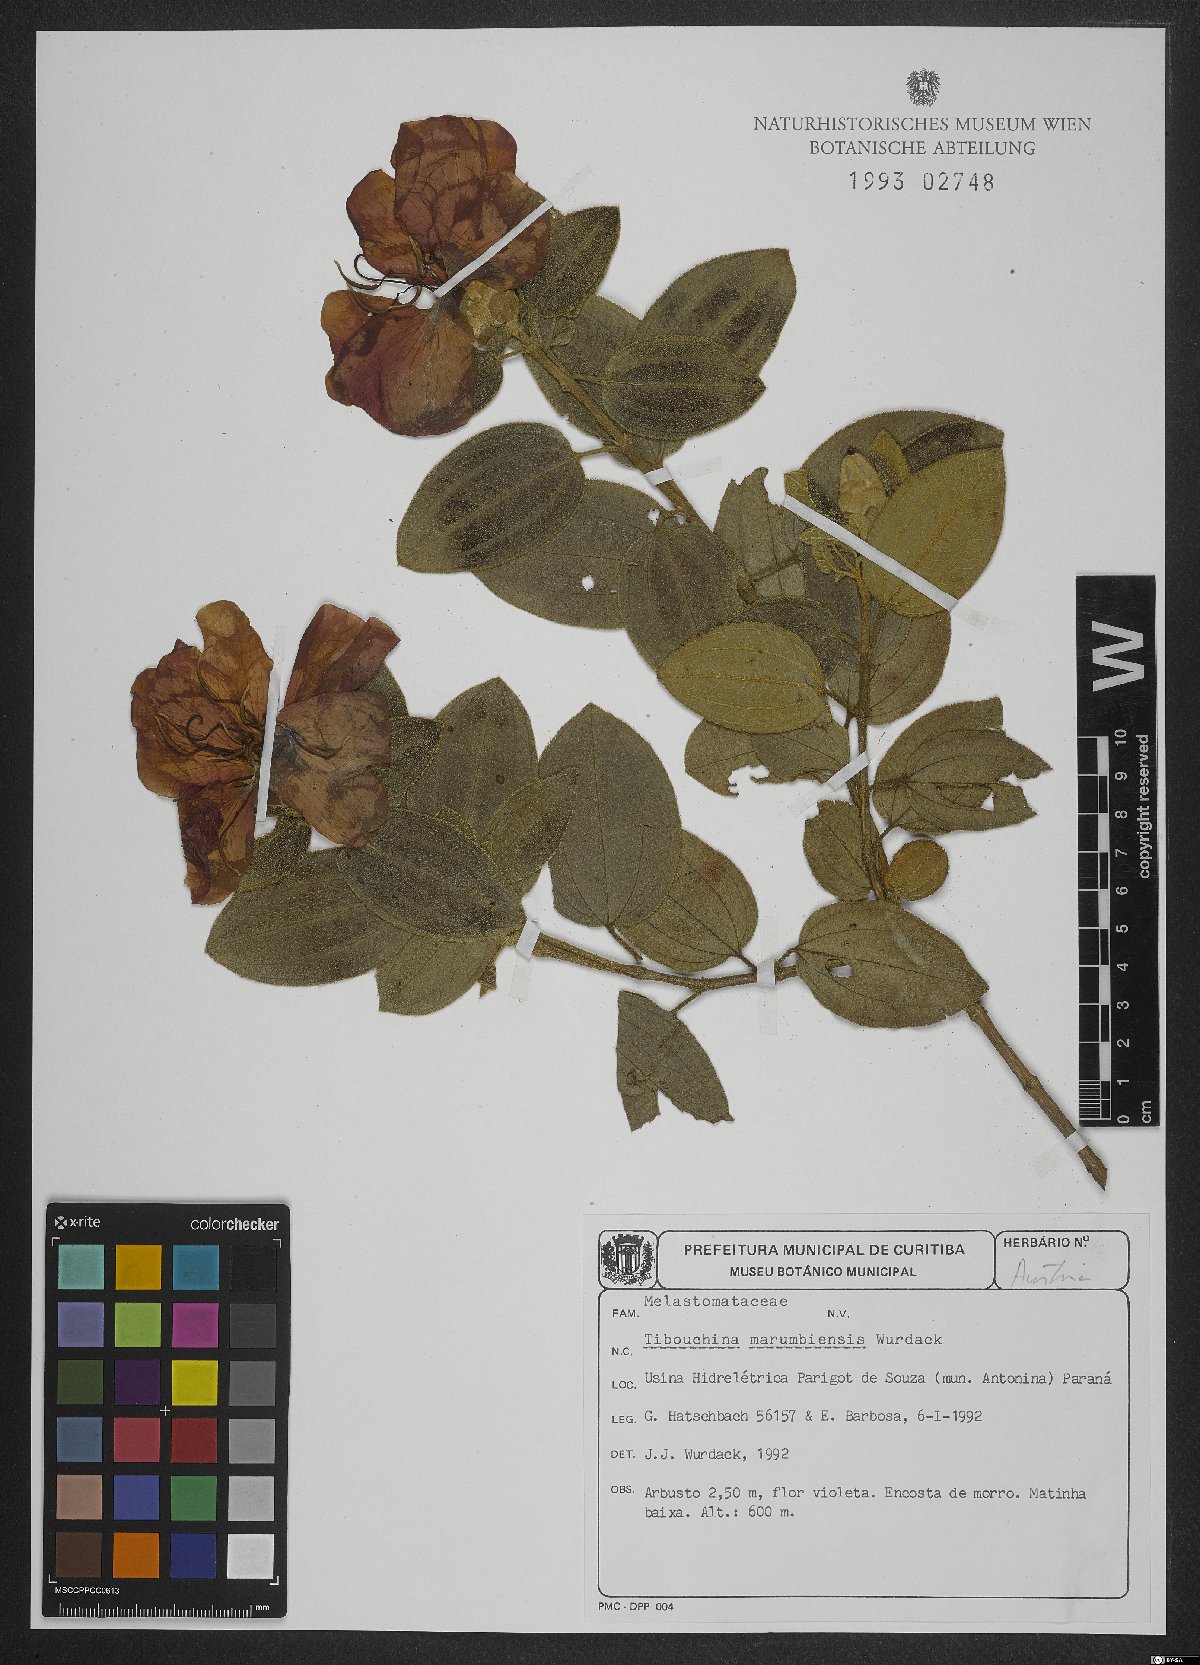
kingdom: Plantae
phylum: Tracheophyta
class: Magnoliopsida
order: Myrtales
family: Melastomataceae
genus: Pleroma
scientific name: Pleroma marumbiense
